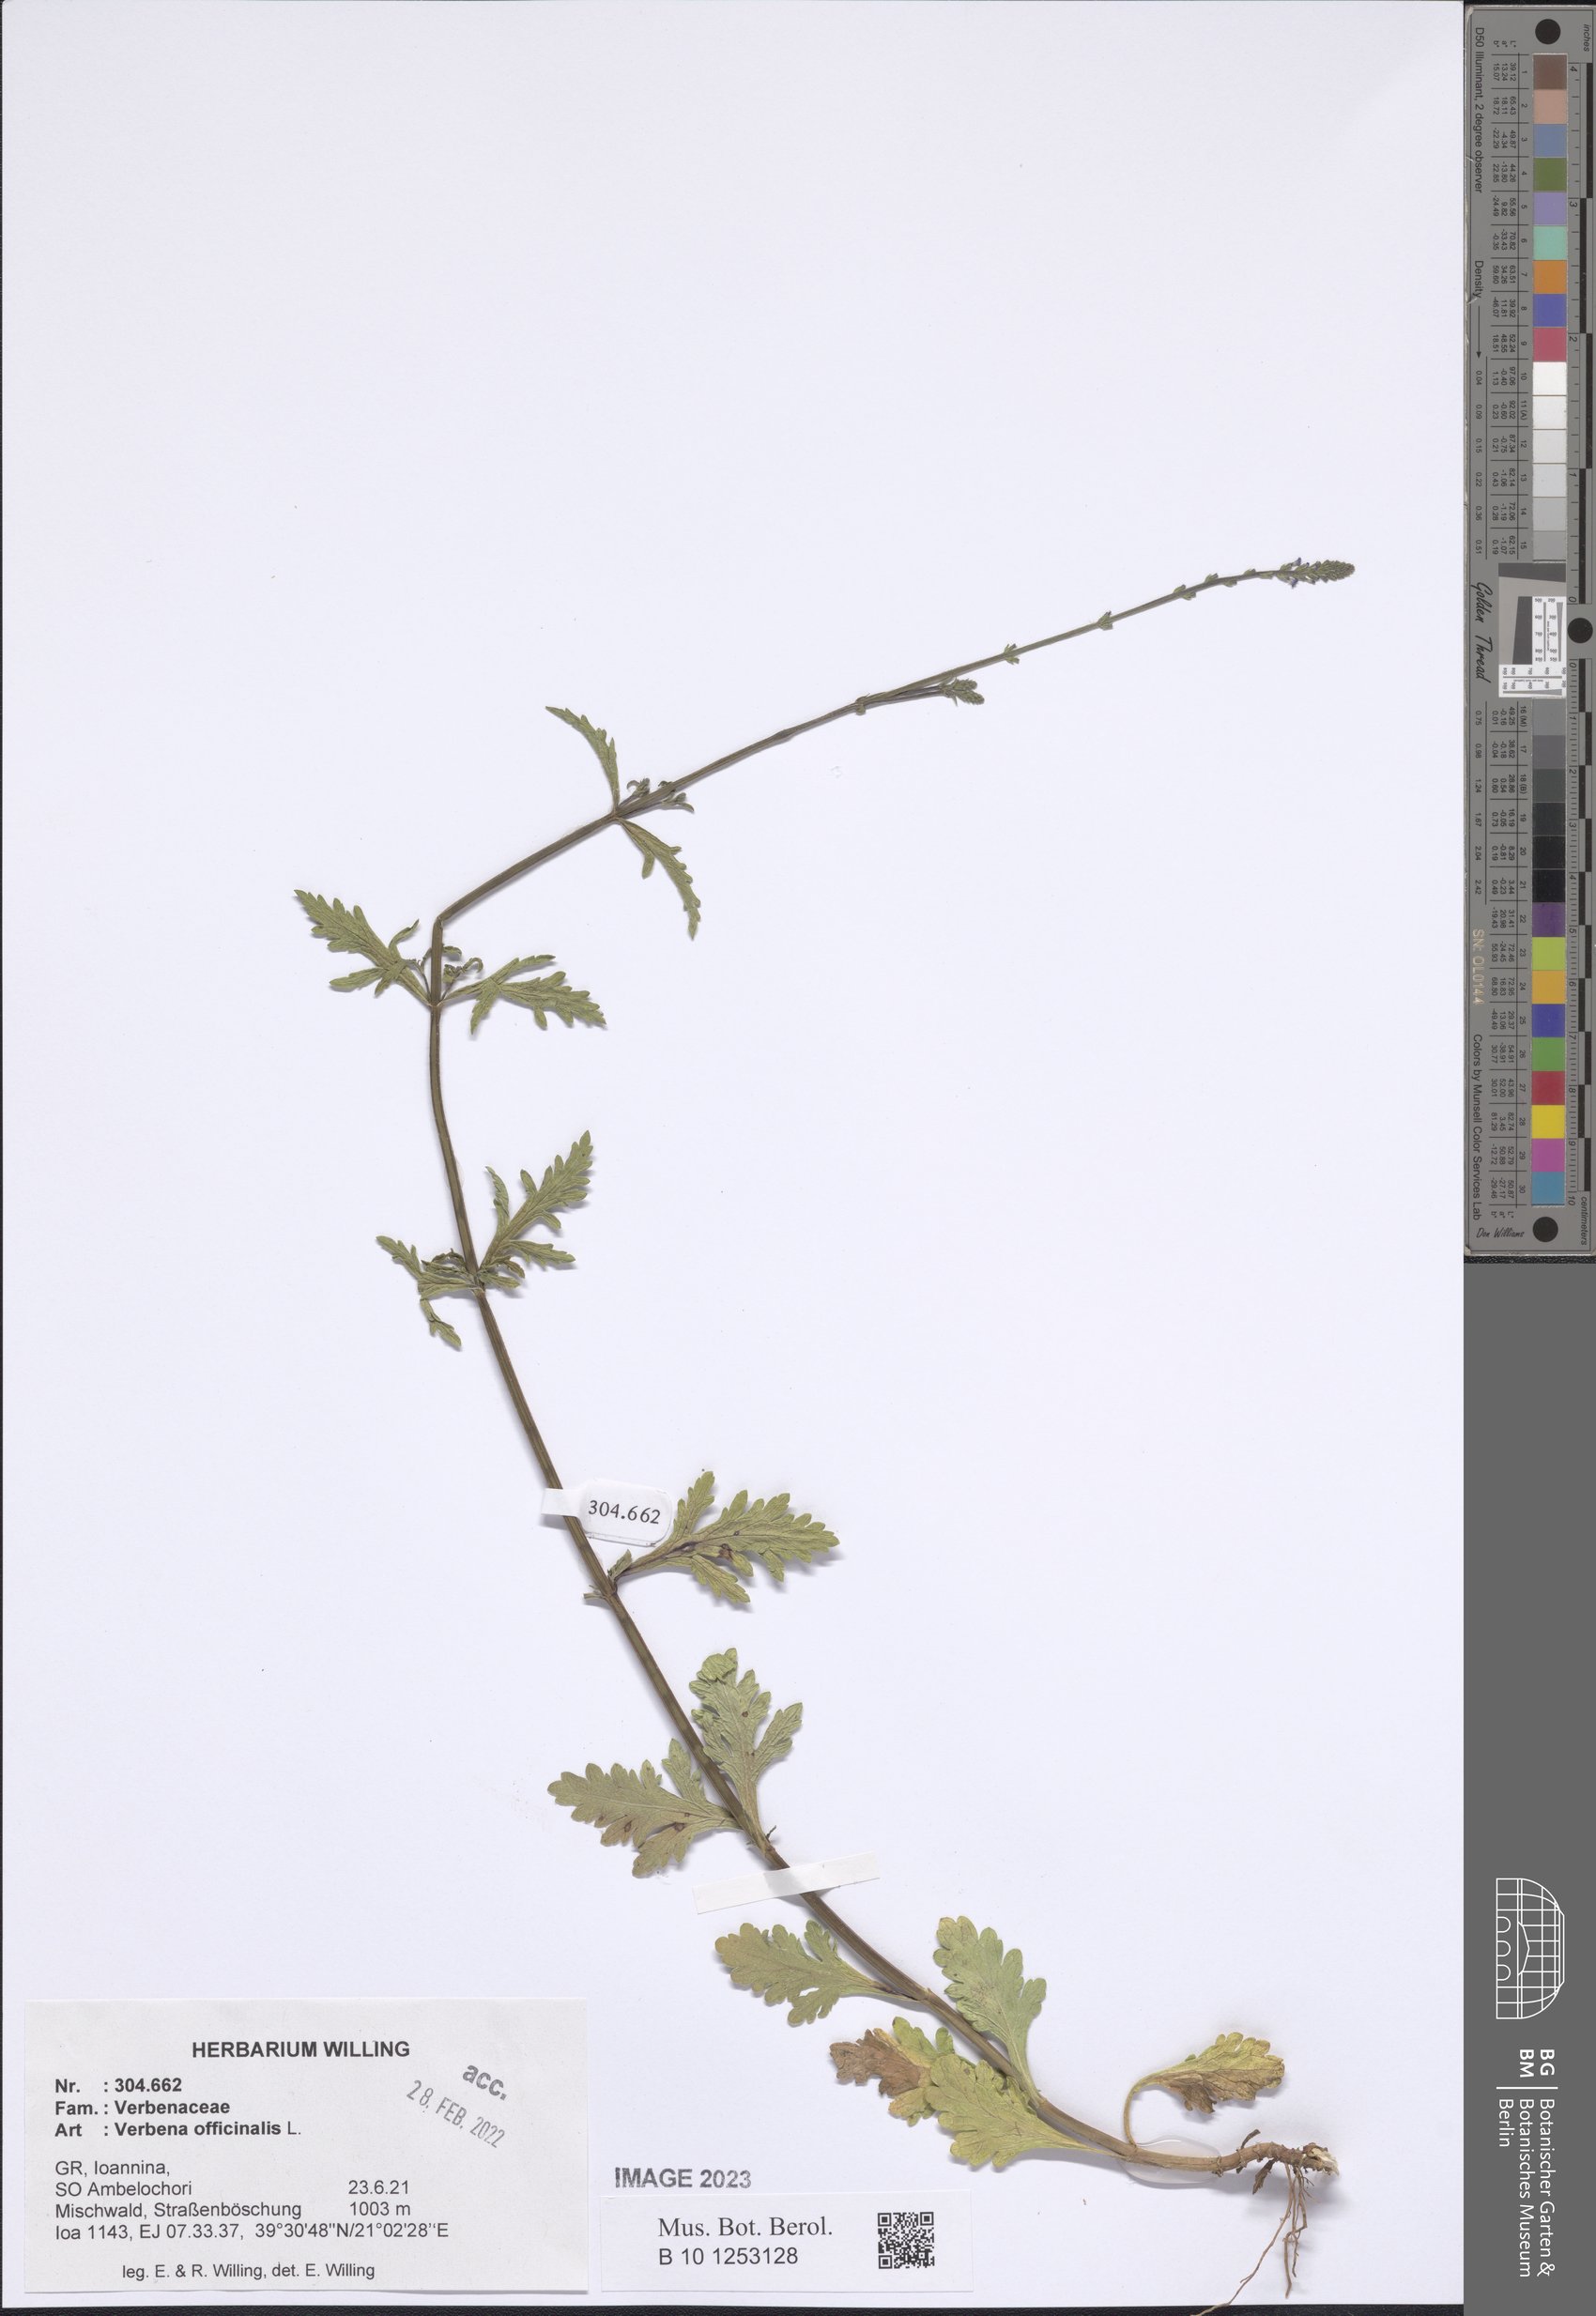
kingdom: Plantae
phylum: Tracheophyta
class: Magnoliopsida
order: Lamiales
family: Verbenaceae
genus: Verbena
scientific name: Verbena officinalis
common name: Vervain
